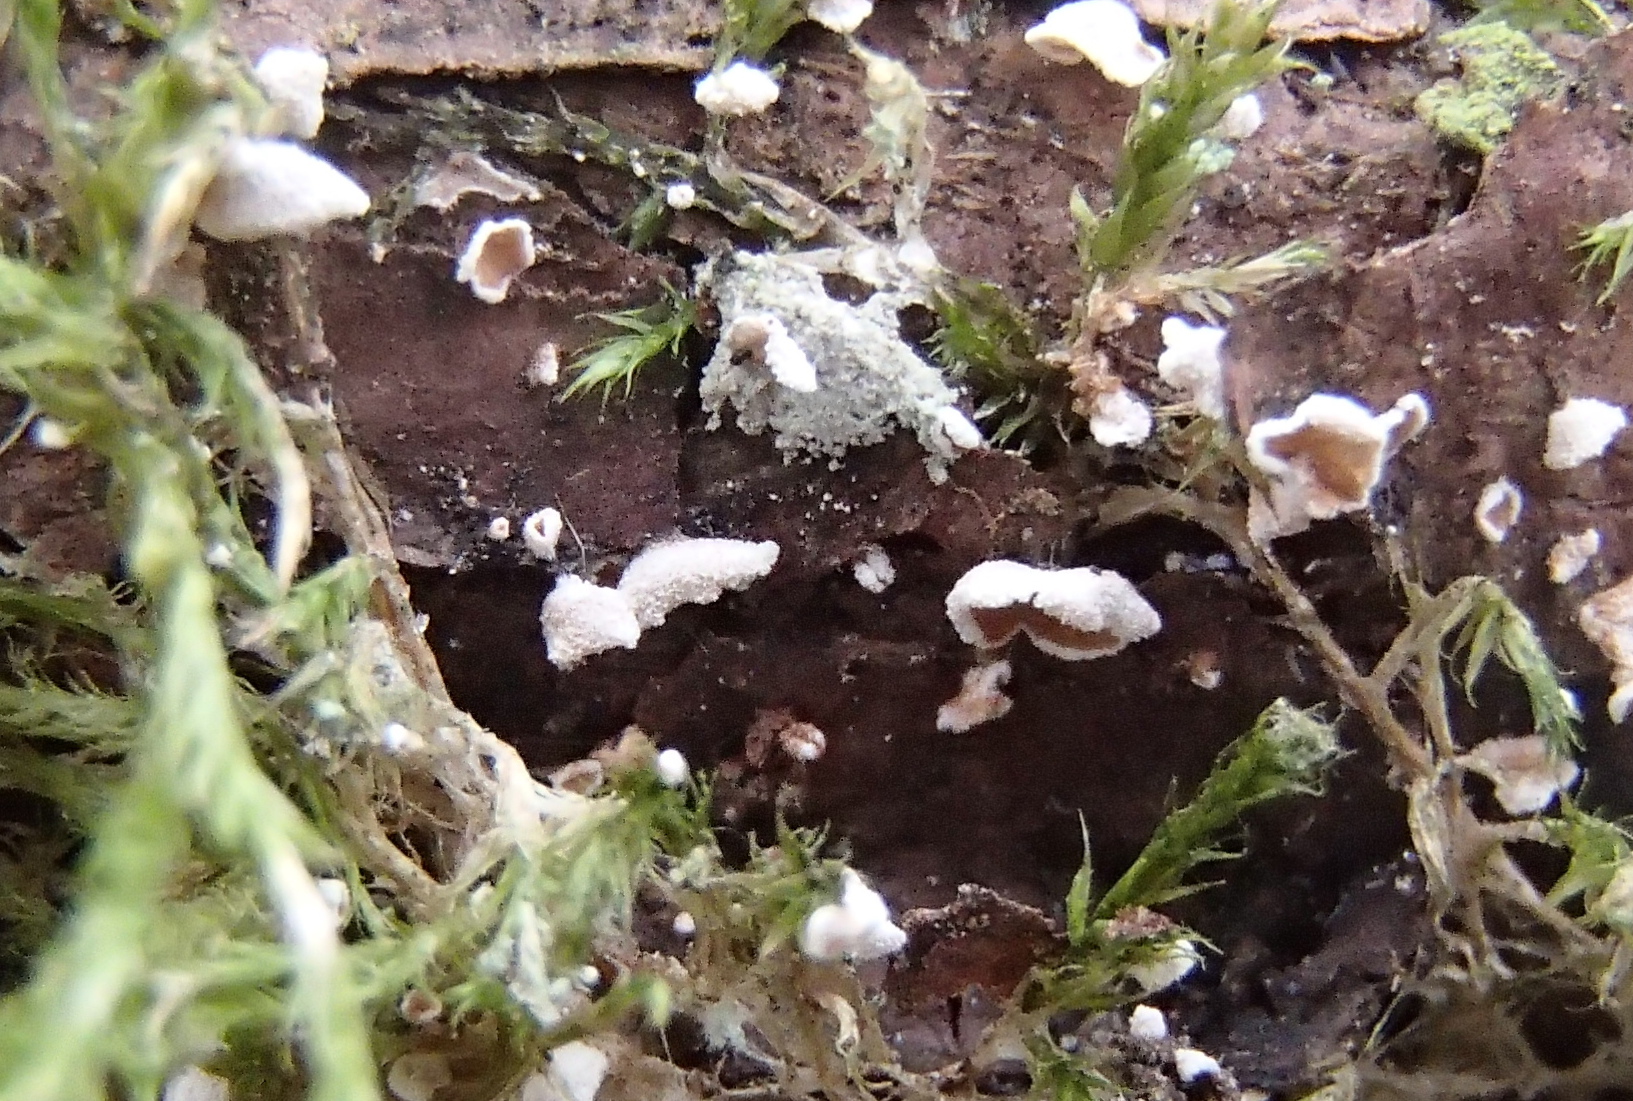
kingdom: Fungi
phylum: Basidiomycota
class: Agaricomycetes
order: Agaricales
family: Chromocyphellaceae
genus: Chromocyphella
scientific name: Chromocyphella muscicola
